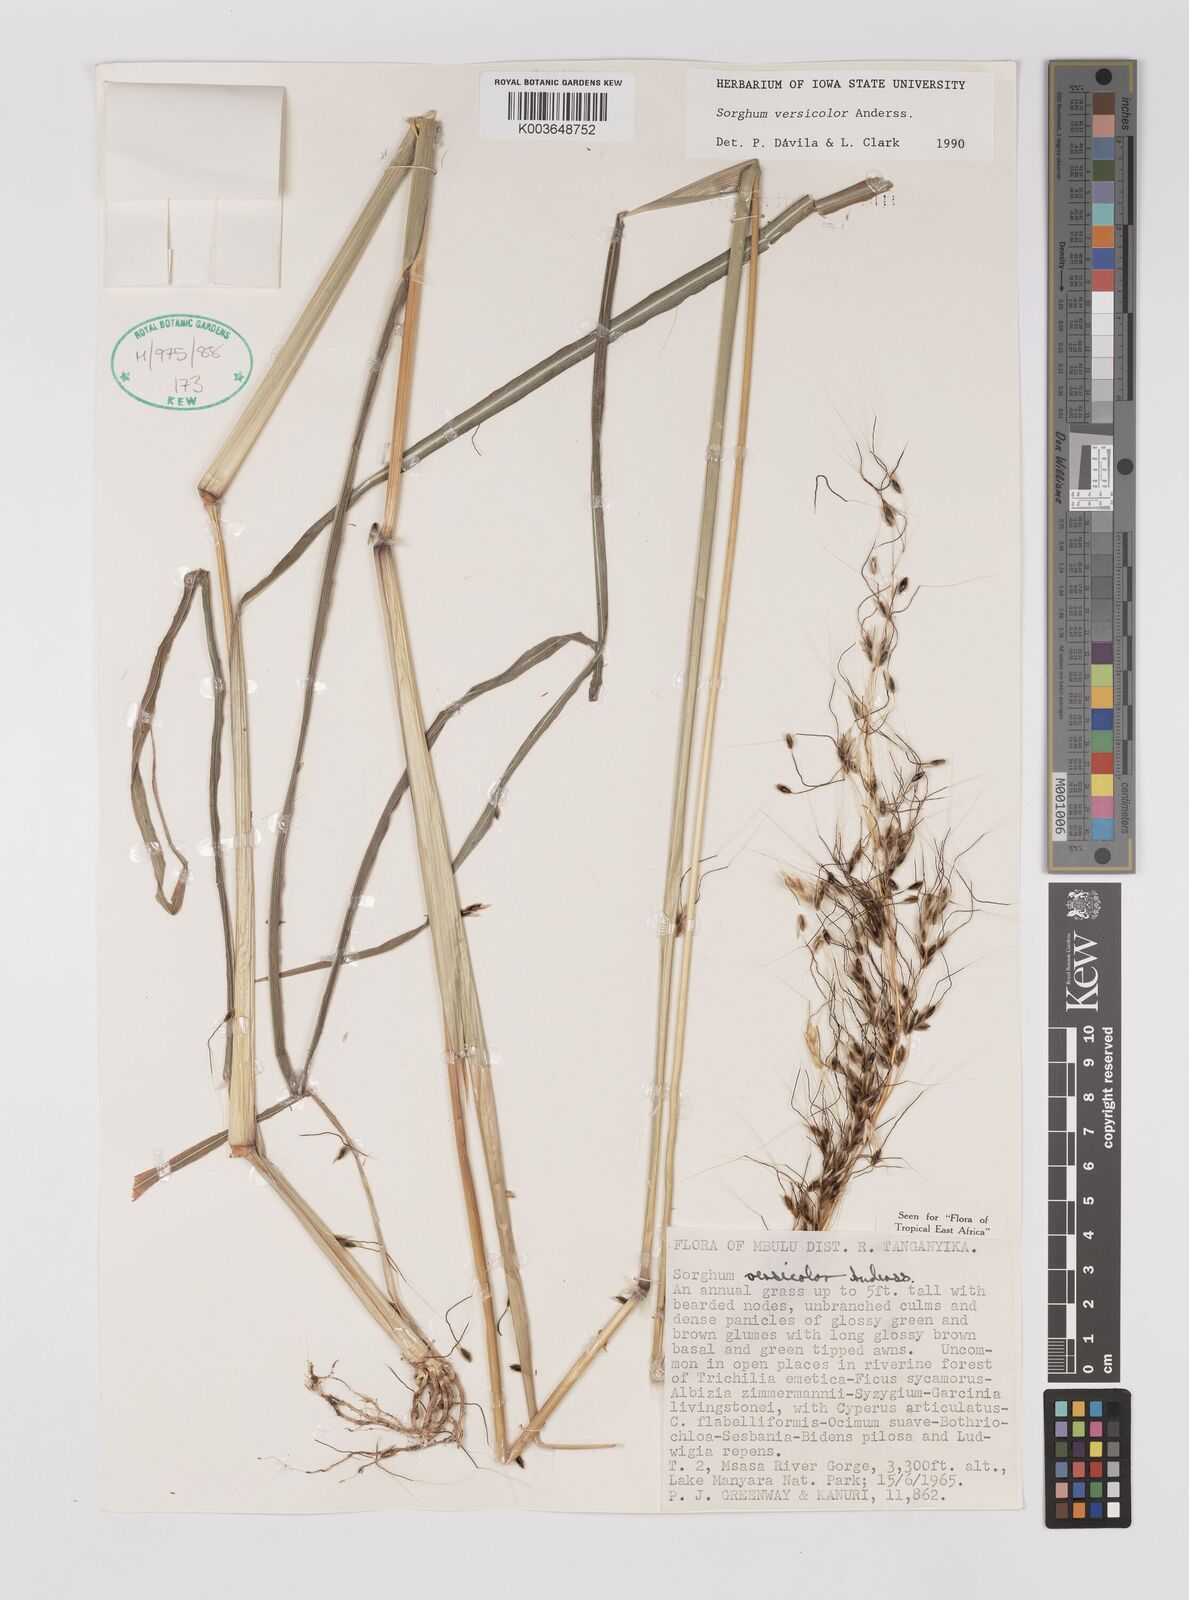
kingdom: Plantae
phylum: Tracheophyta
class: Liliopsida
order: Poales
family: Poaceae
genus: Sarga
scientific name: Sarga versicolor
